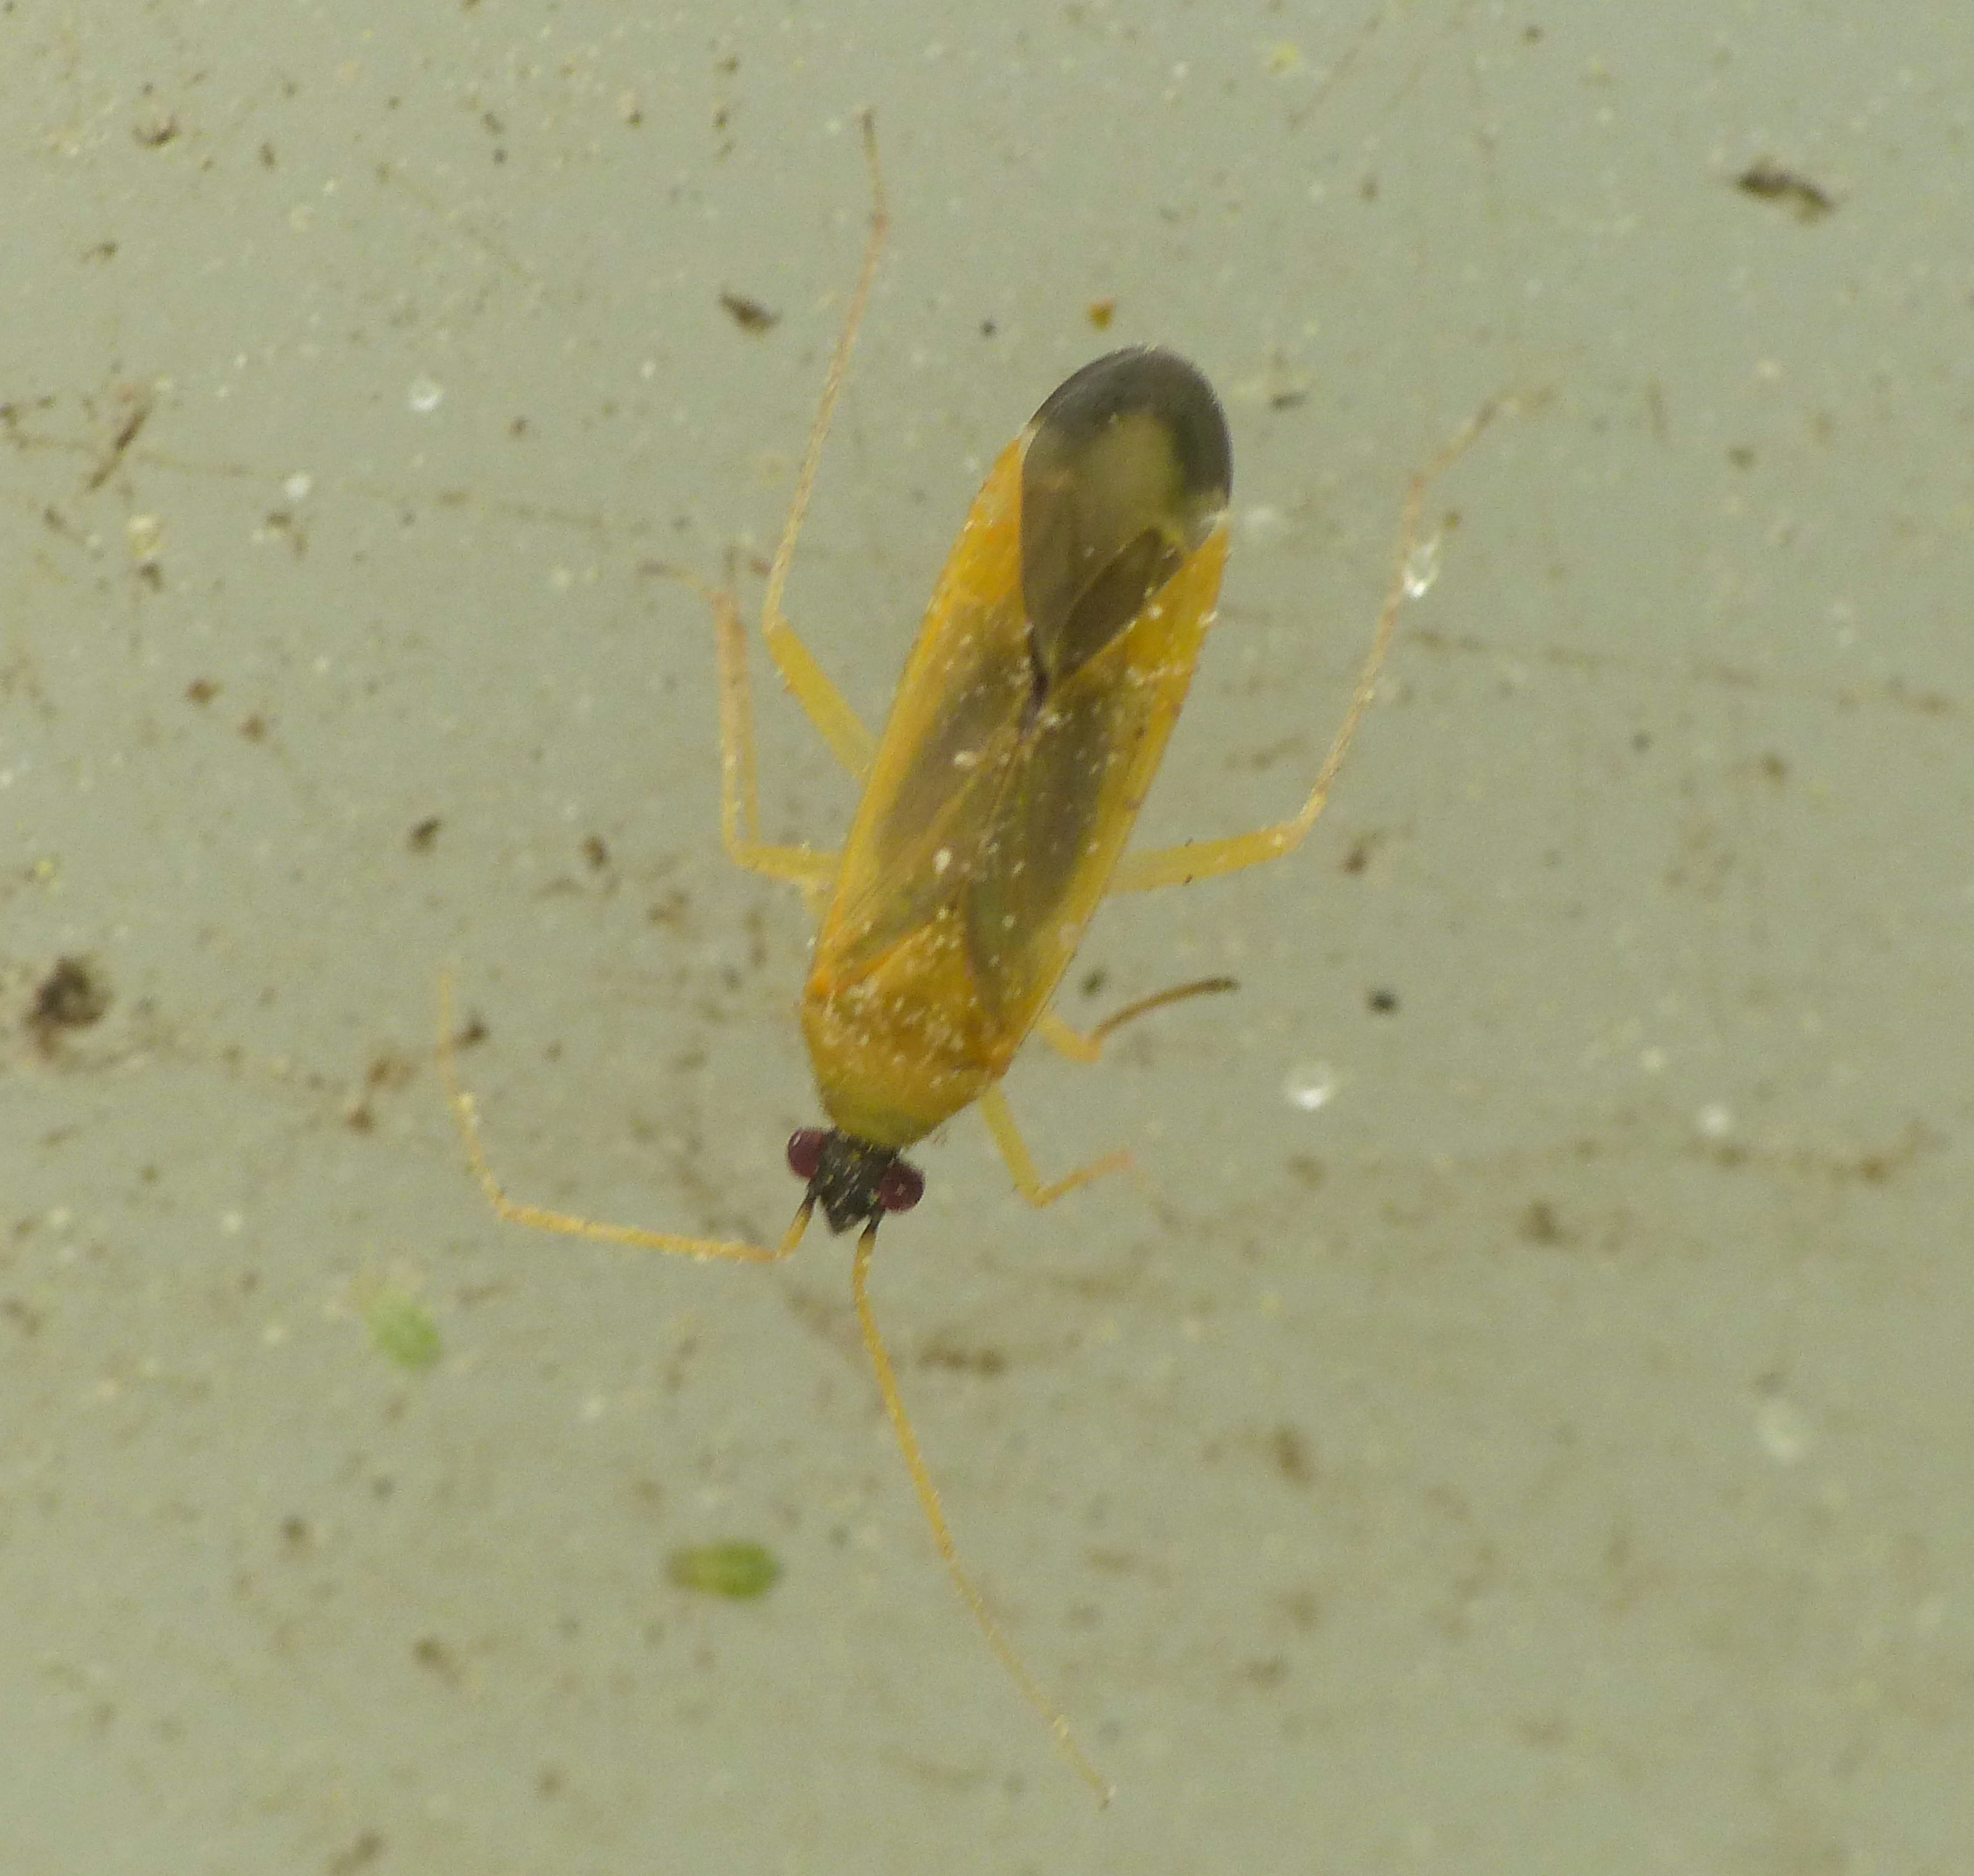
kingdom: Animalia
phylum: Arthropoda
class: Insecta
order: Hemiptera
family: Miridae
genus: Phylus
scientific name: Phylus melanocephalus
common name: Egeblomstertæge
